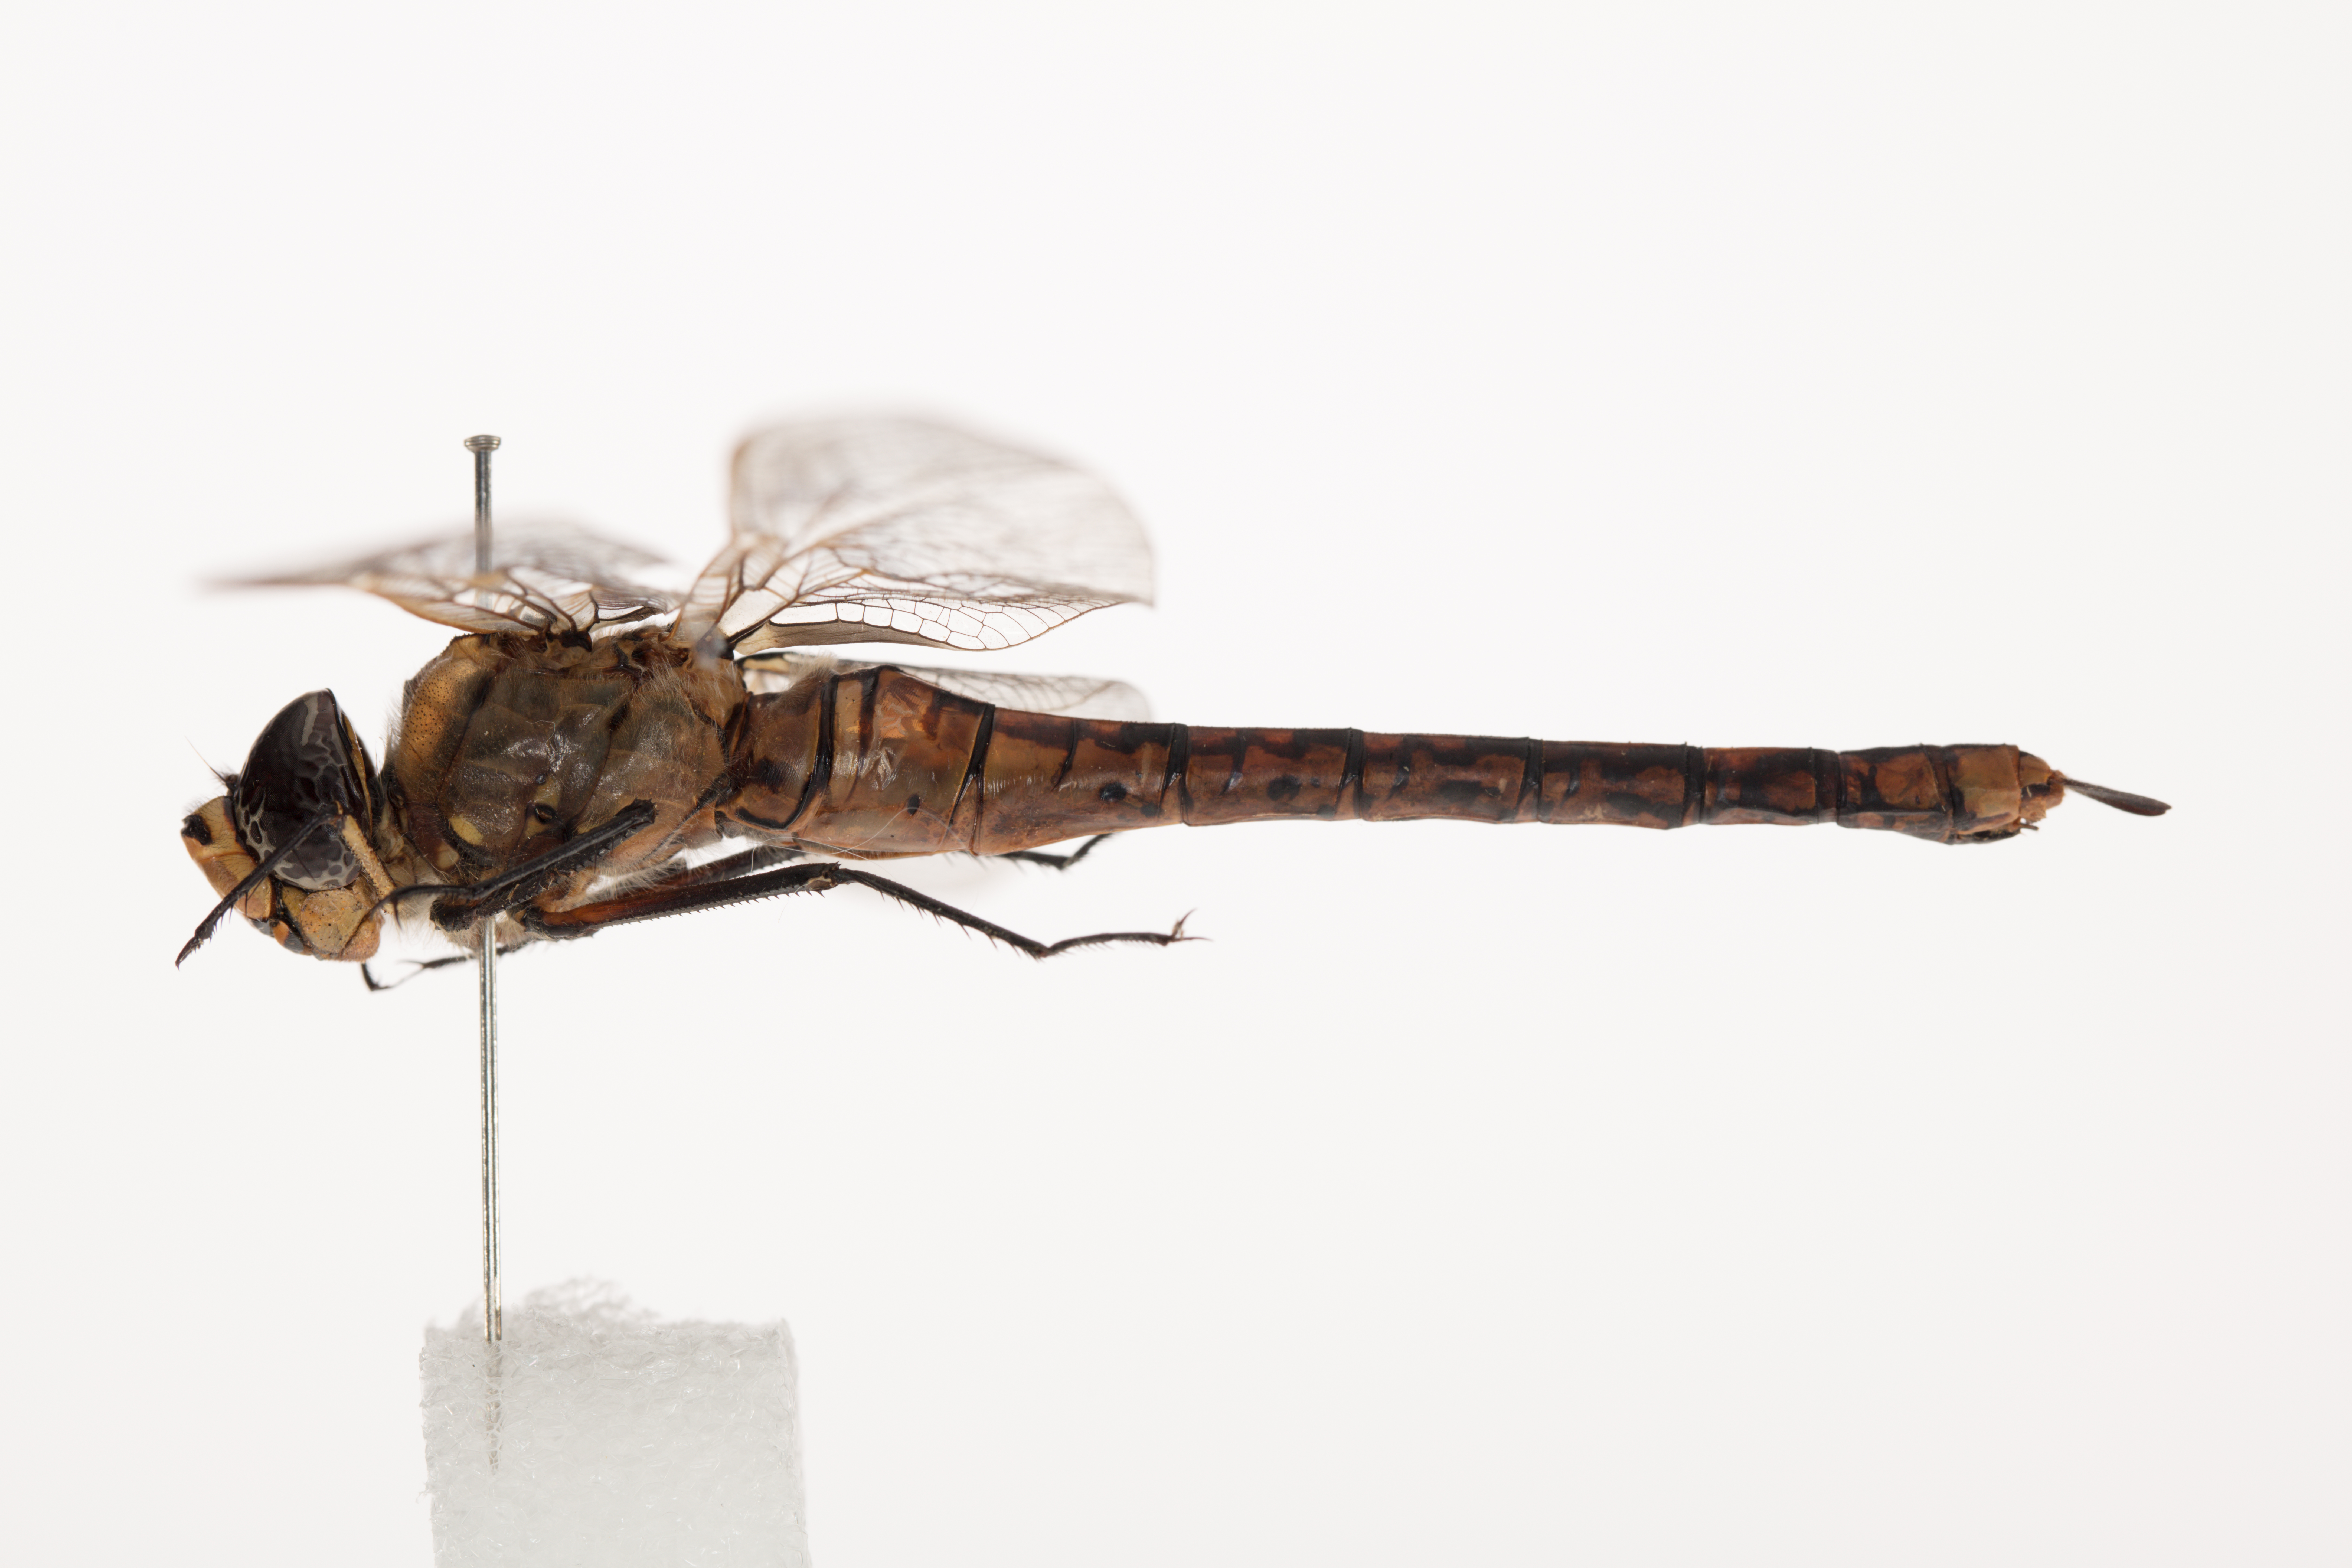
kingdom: Animalia
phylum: Arthropoda
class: Insecta
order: Odonata
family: Aeshnidae
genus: Anax
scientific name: Anax papuensis
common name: Australian emperor
